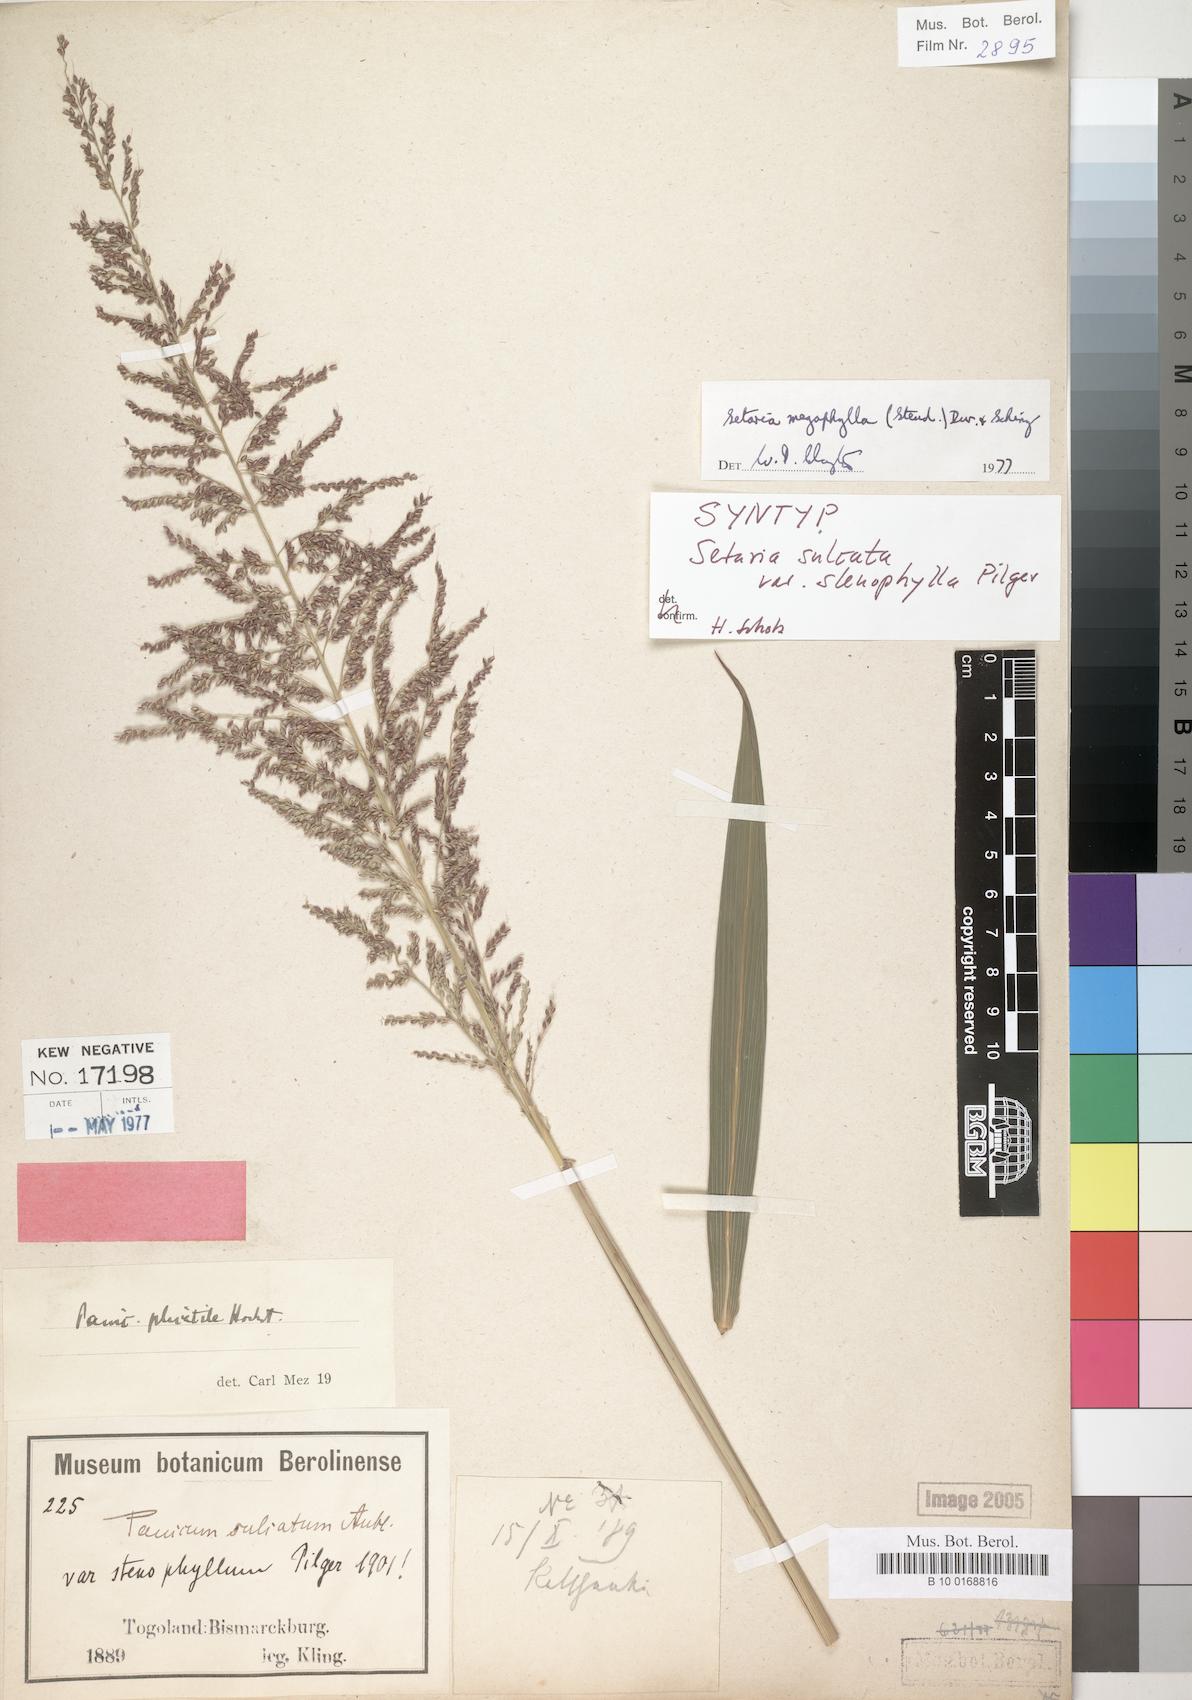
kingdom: Plantae
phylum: Tracheophyta
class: Liliopsida
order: Poales
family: Poaceae
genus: Setaria
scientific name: Setaria sulcata
